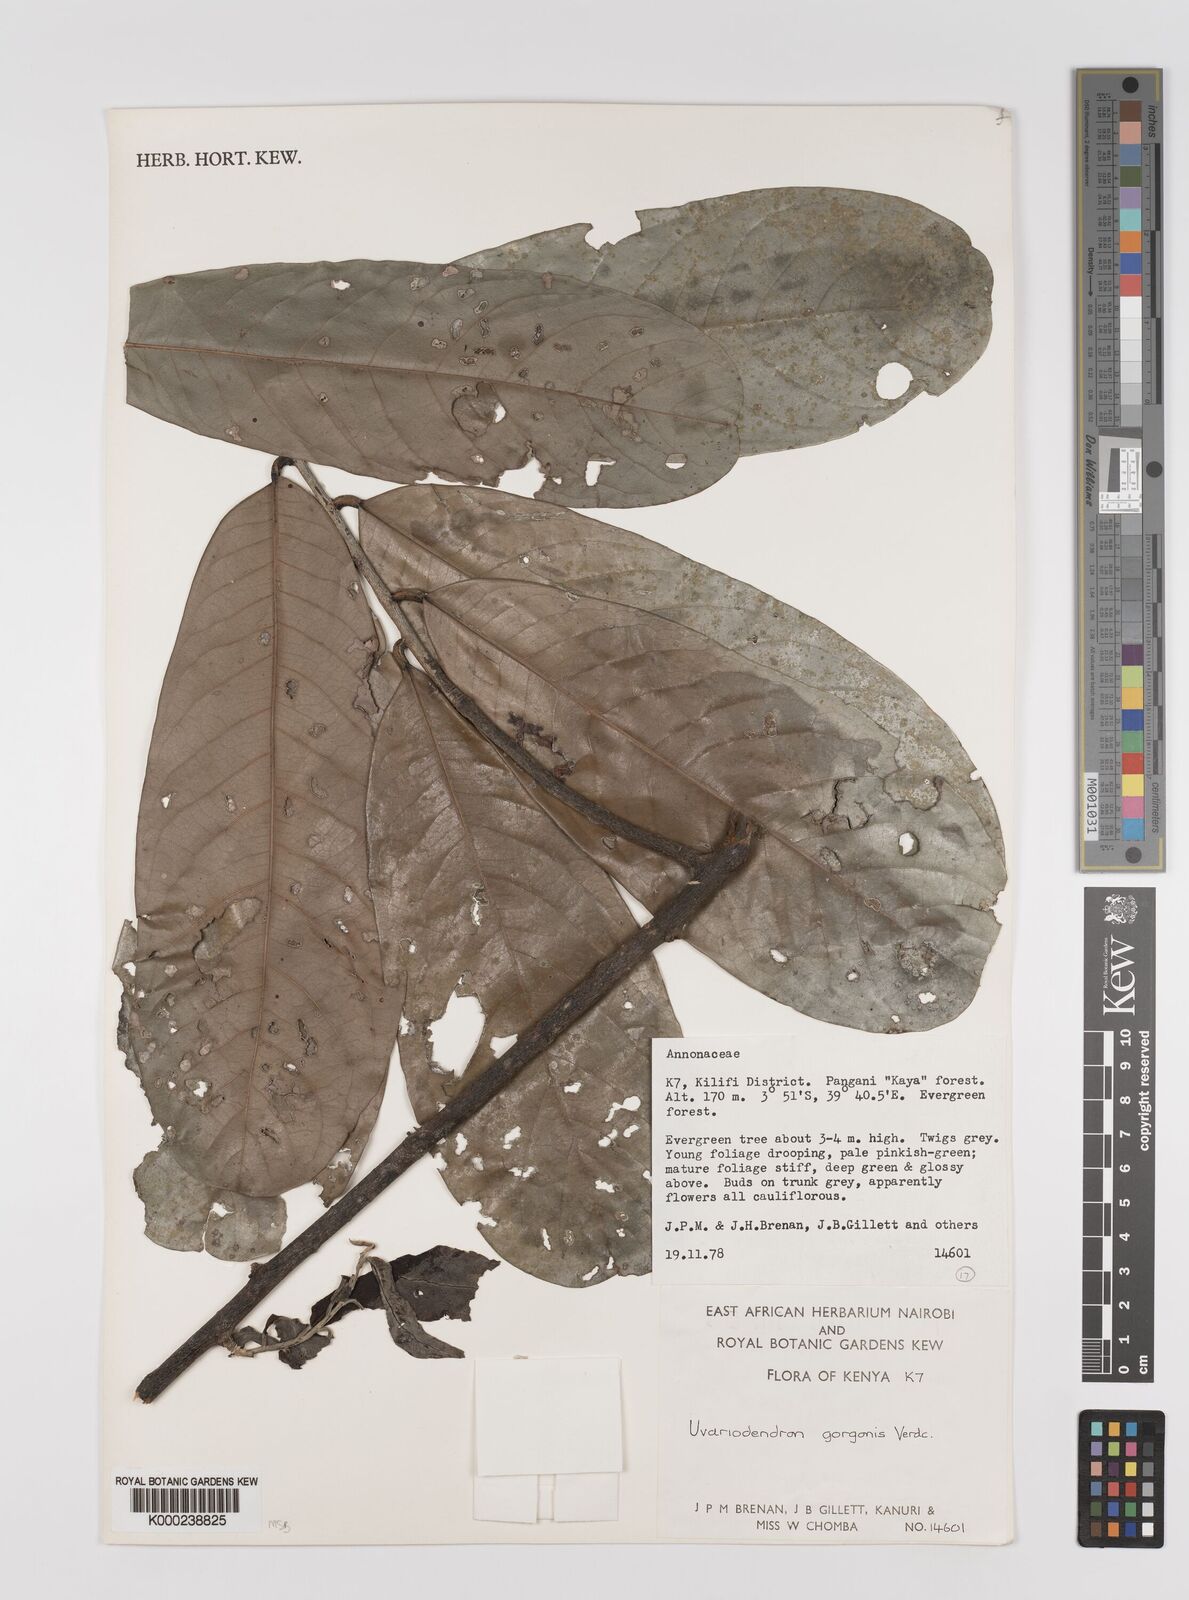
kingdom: Plantae
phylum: Tracheophyta
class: Magnoliopsida
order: Magnoliales
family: Annonaceae
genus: Uvariodendron
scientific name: Uvariodendron gorgonis
